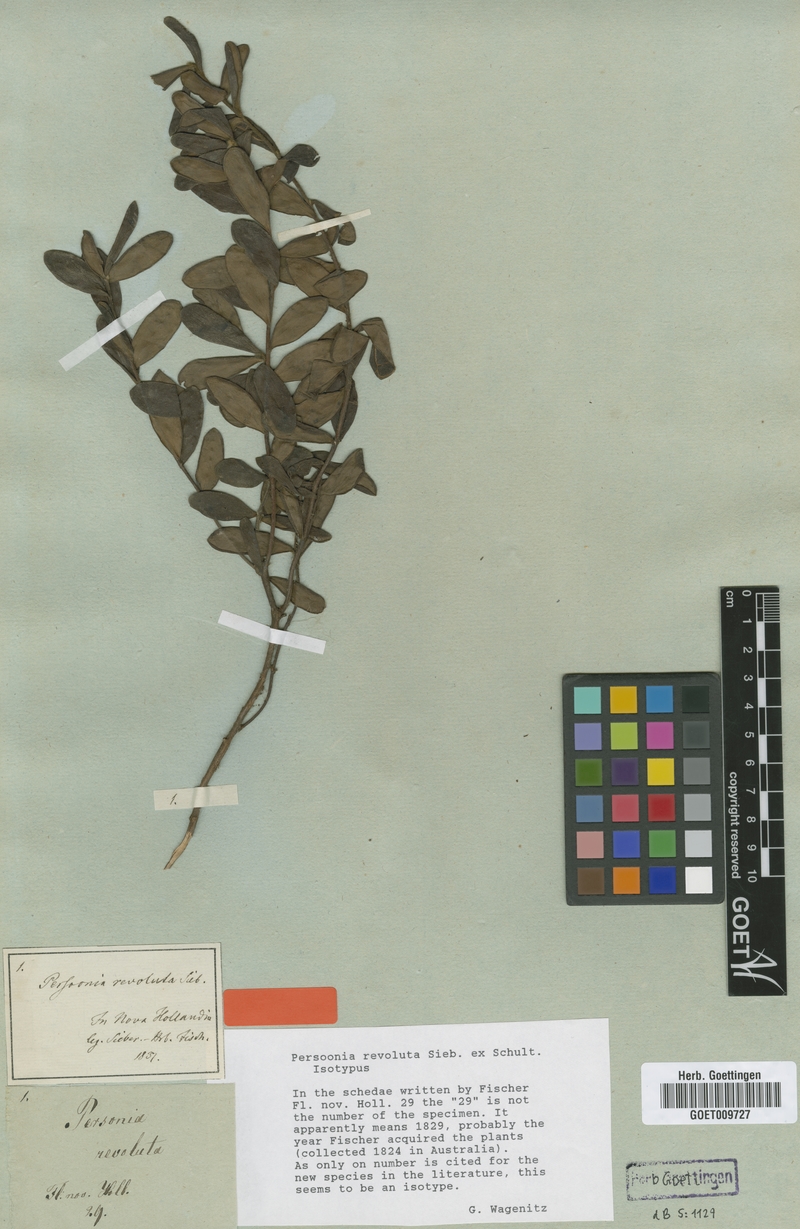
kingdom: Plantae
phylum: Tracheophyta
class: Magnoliopsida
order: Proteales
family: Proteaceae
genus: Persoonia
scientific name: Persoonia mollis
